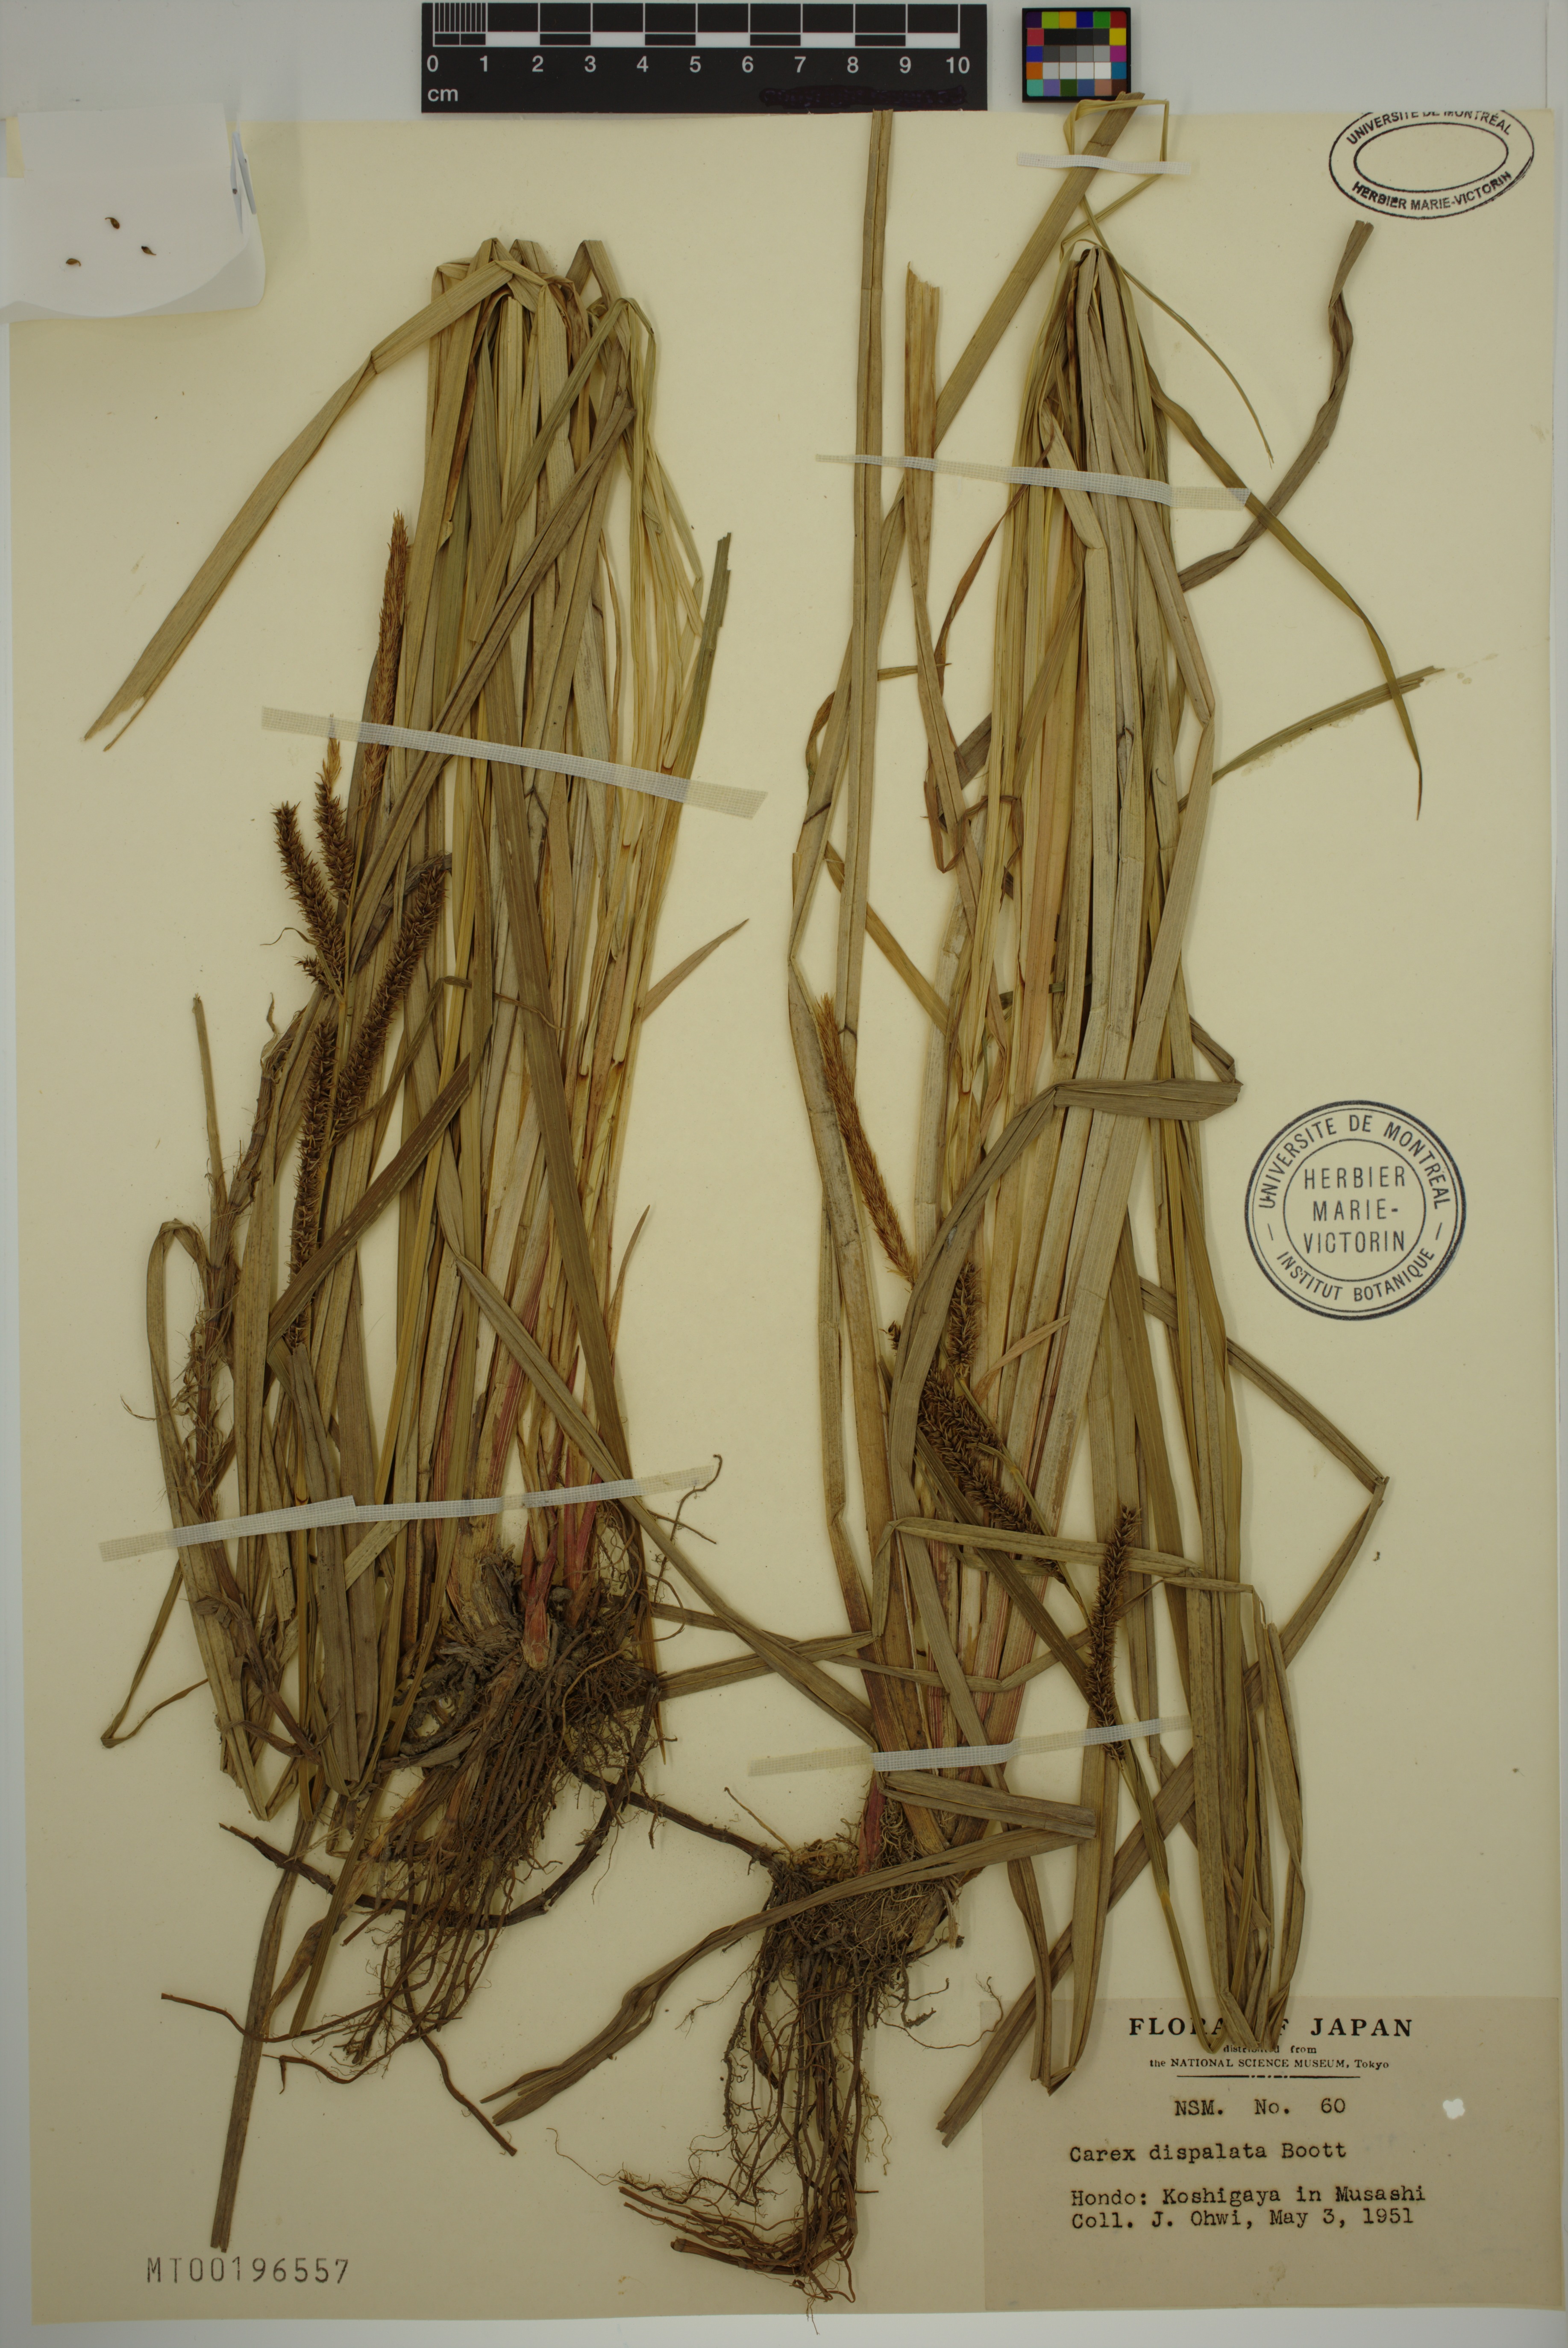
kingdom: Plantae
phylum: Tracheophyta
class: Liliopsida
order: Poales
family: Cyperaceae
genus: Carex
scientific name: Carex dispalata
